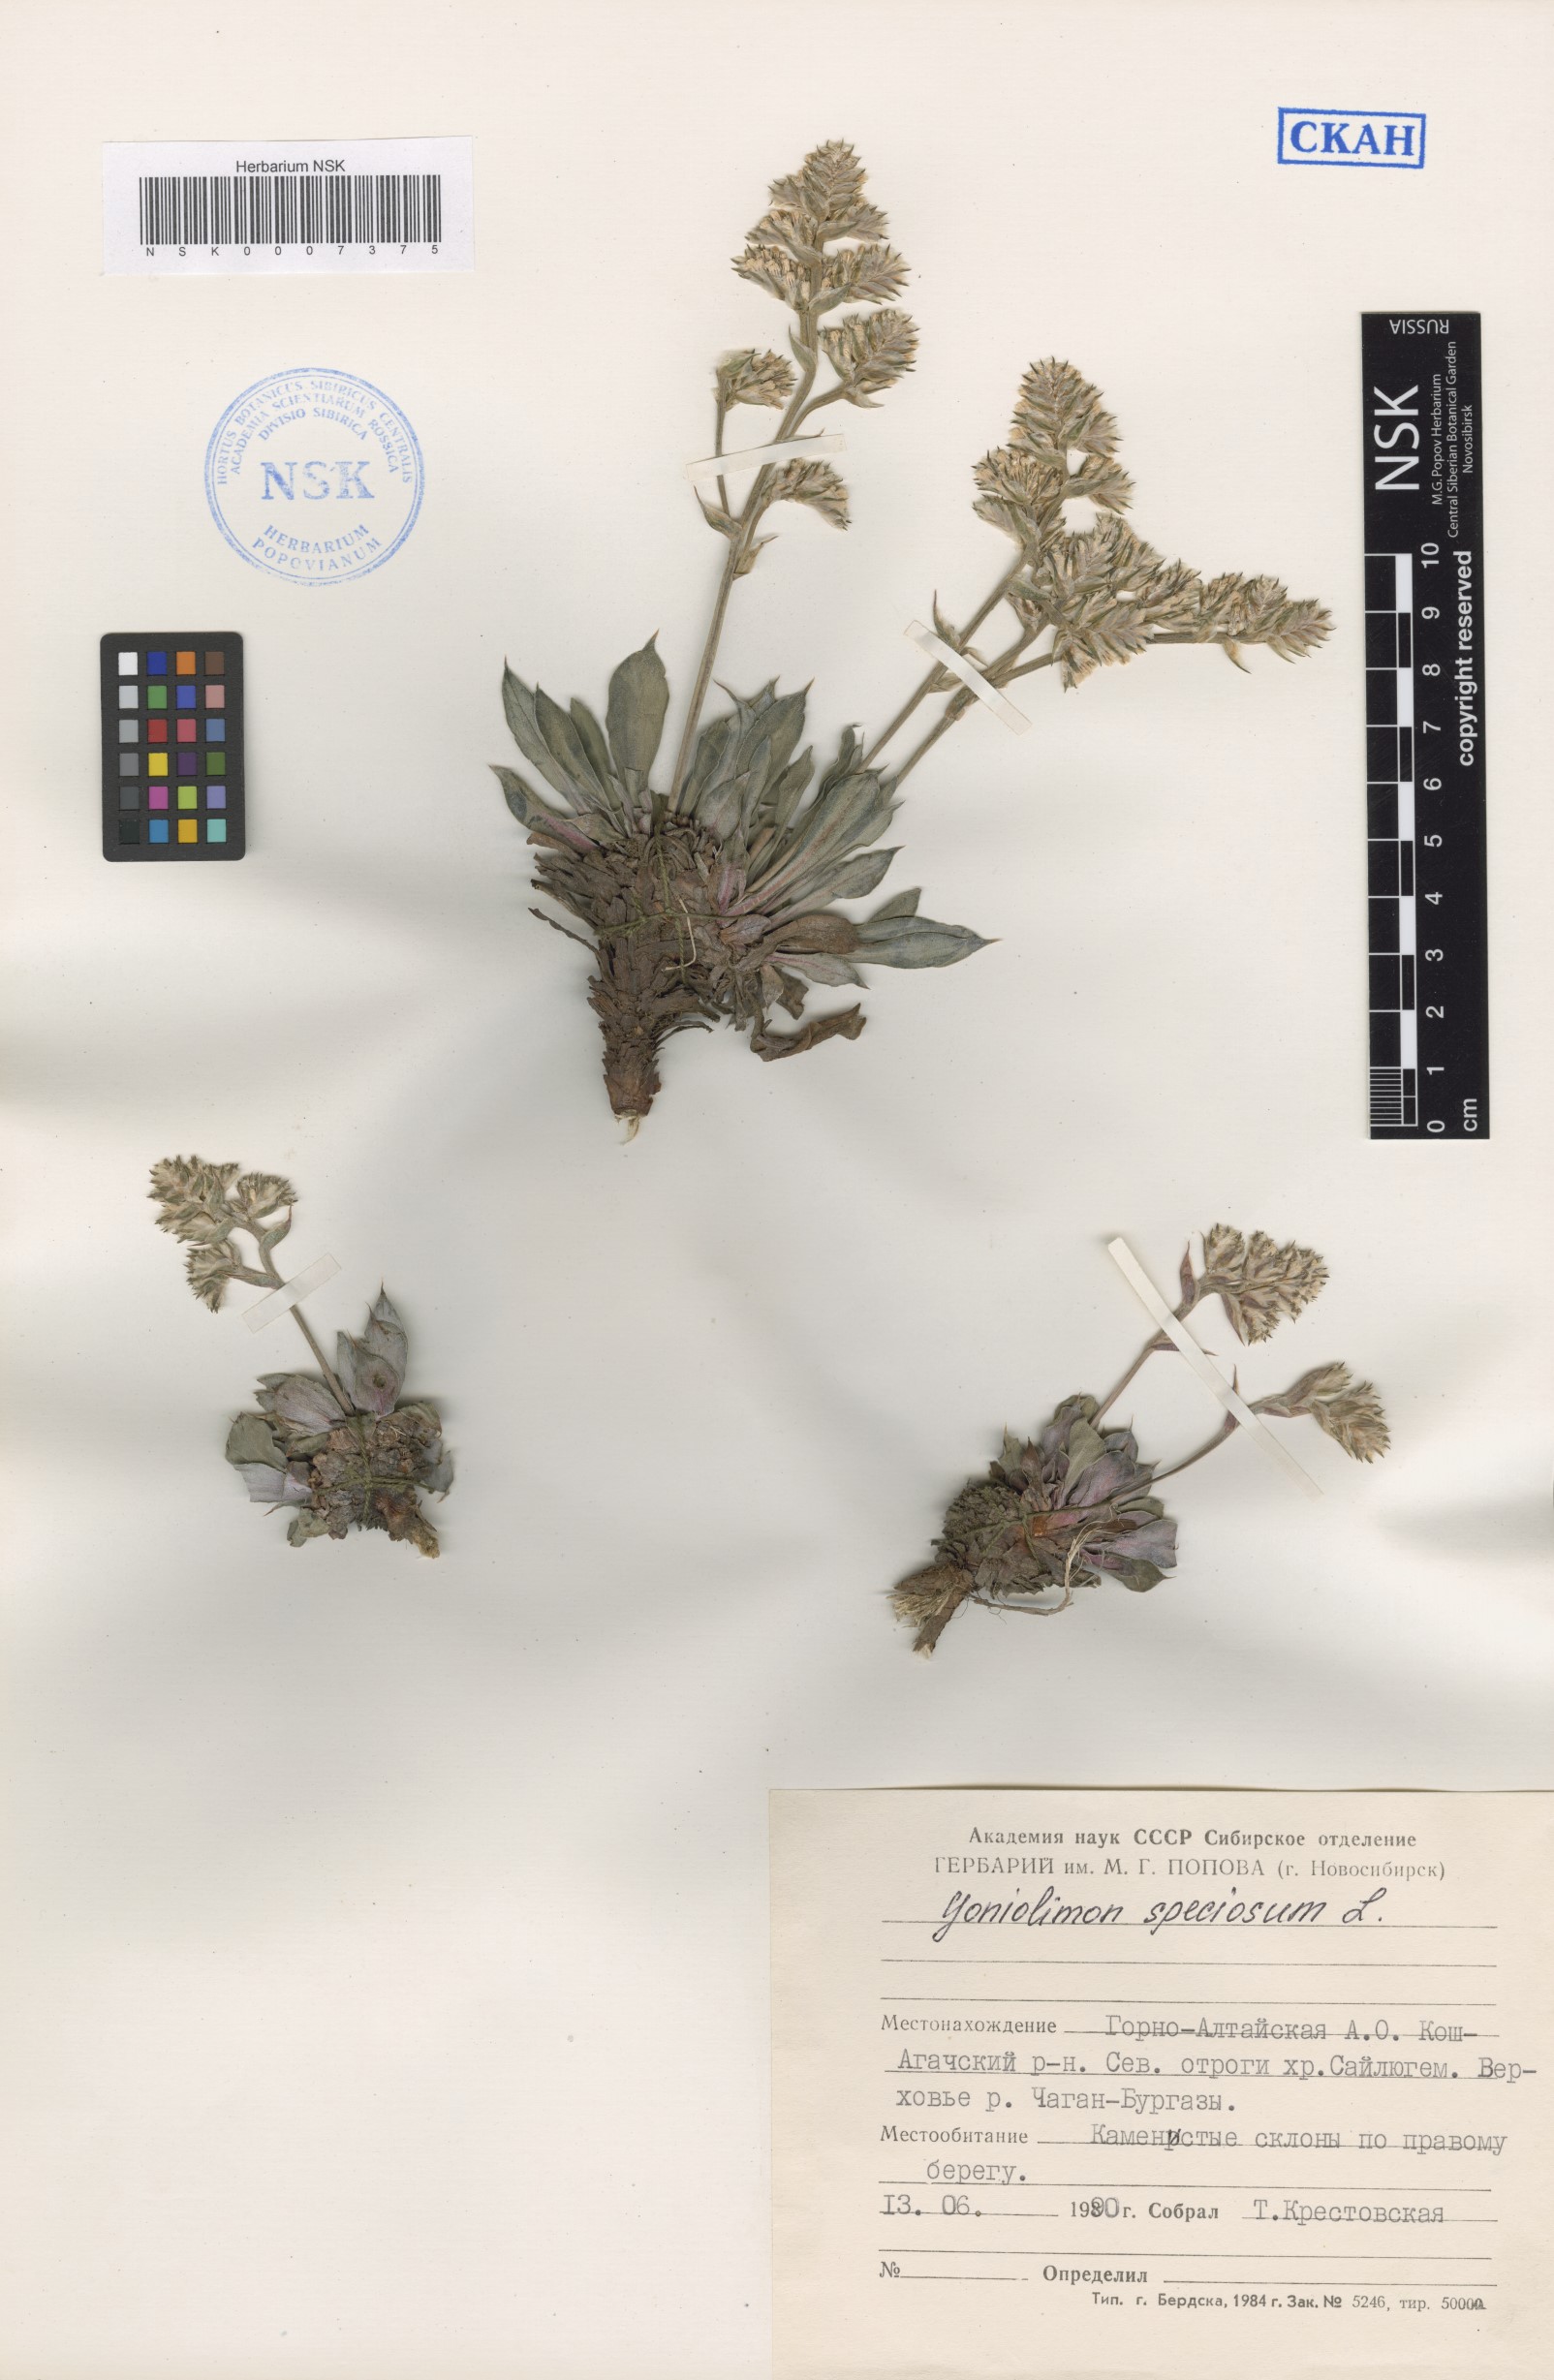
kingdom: Plantae
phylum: Tracheophyta
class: Magnoliopsida
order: Caryophyllales
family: Plumbaginaceae
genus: Goniolimon
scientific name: Goniolimon speciosum
